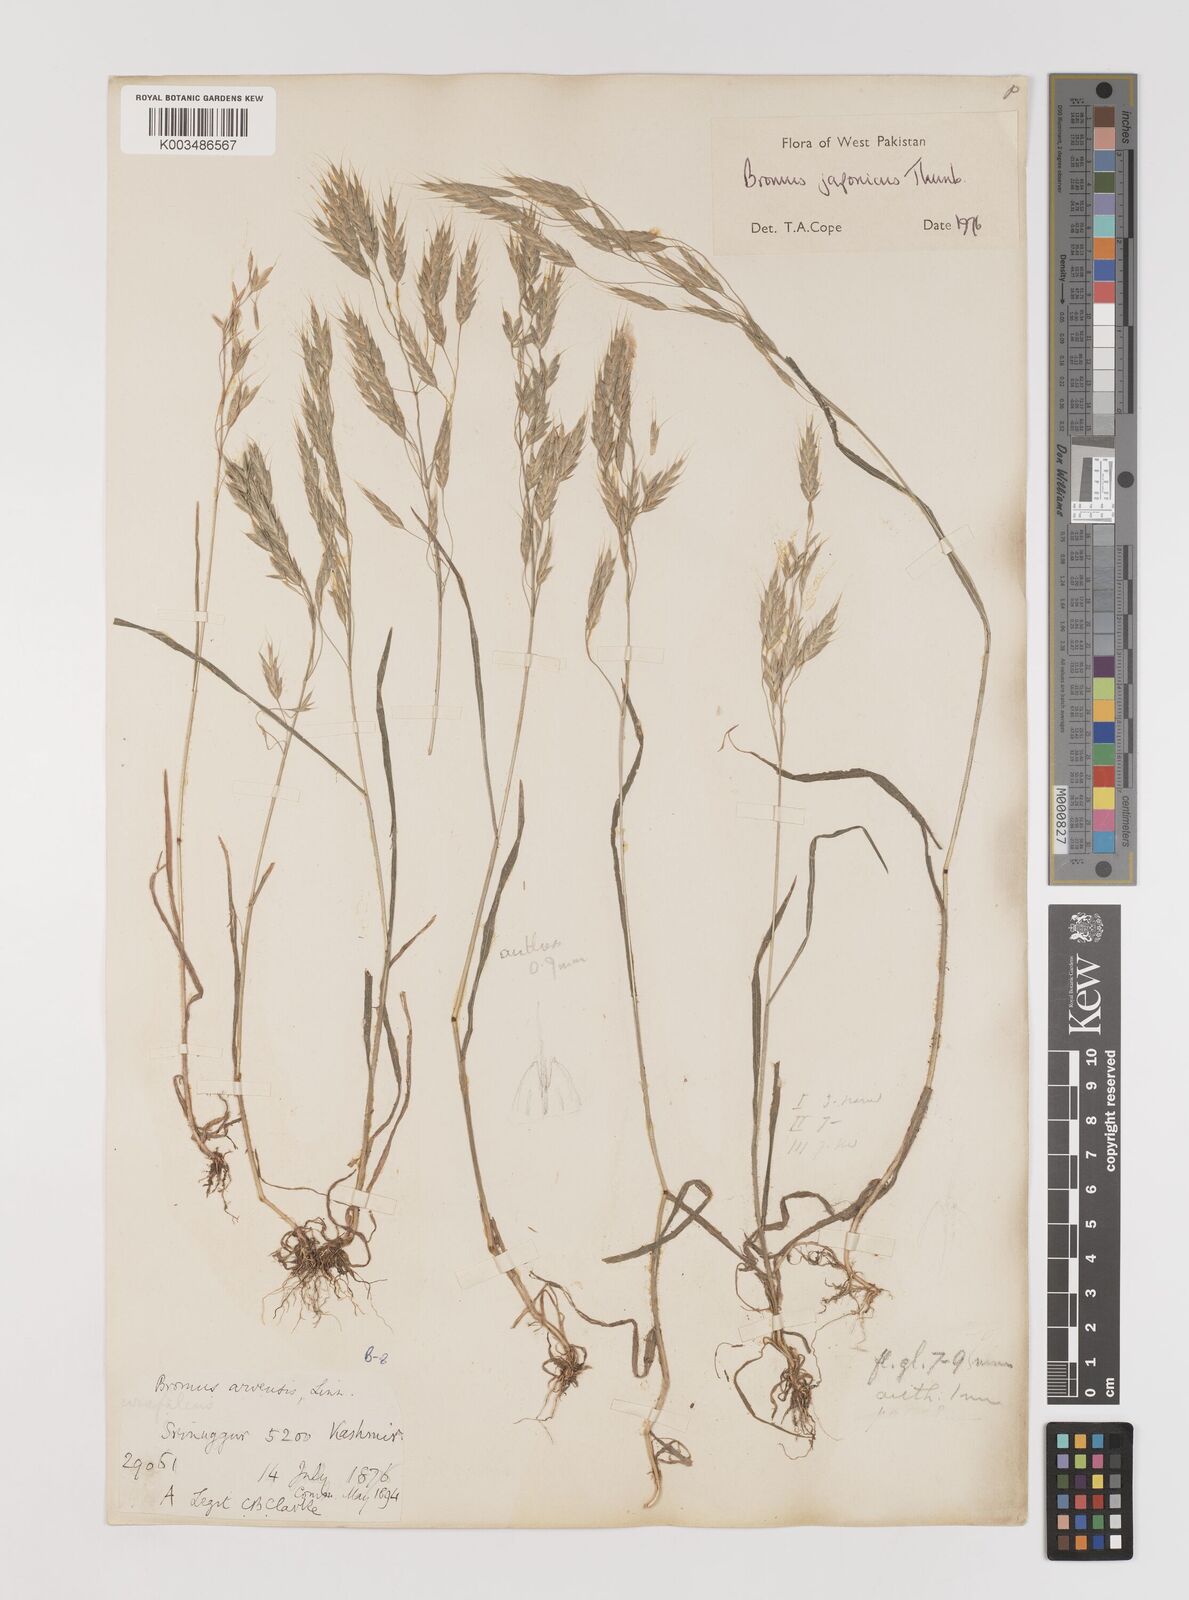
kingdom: Plantae
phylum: Tracheophyta
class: Liliopsida
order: Poales
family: Poaceae
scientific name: Poaceae
